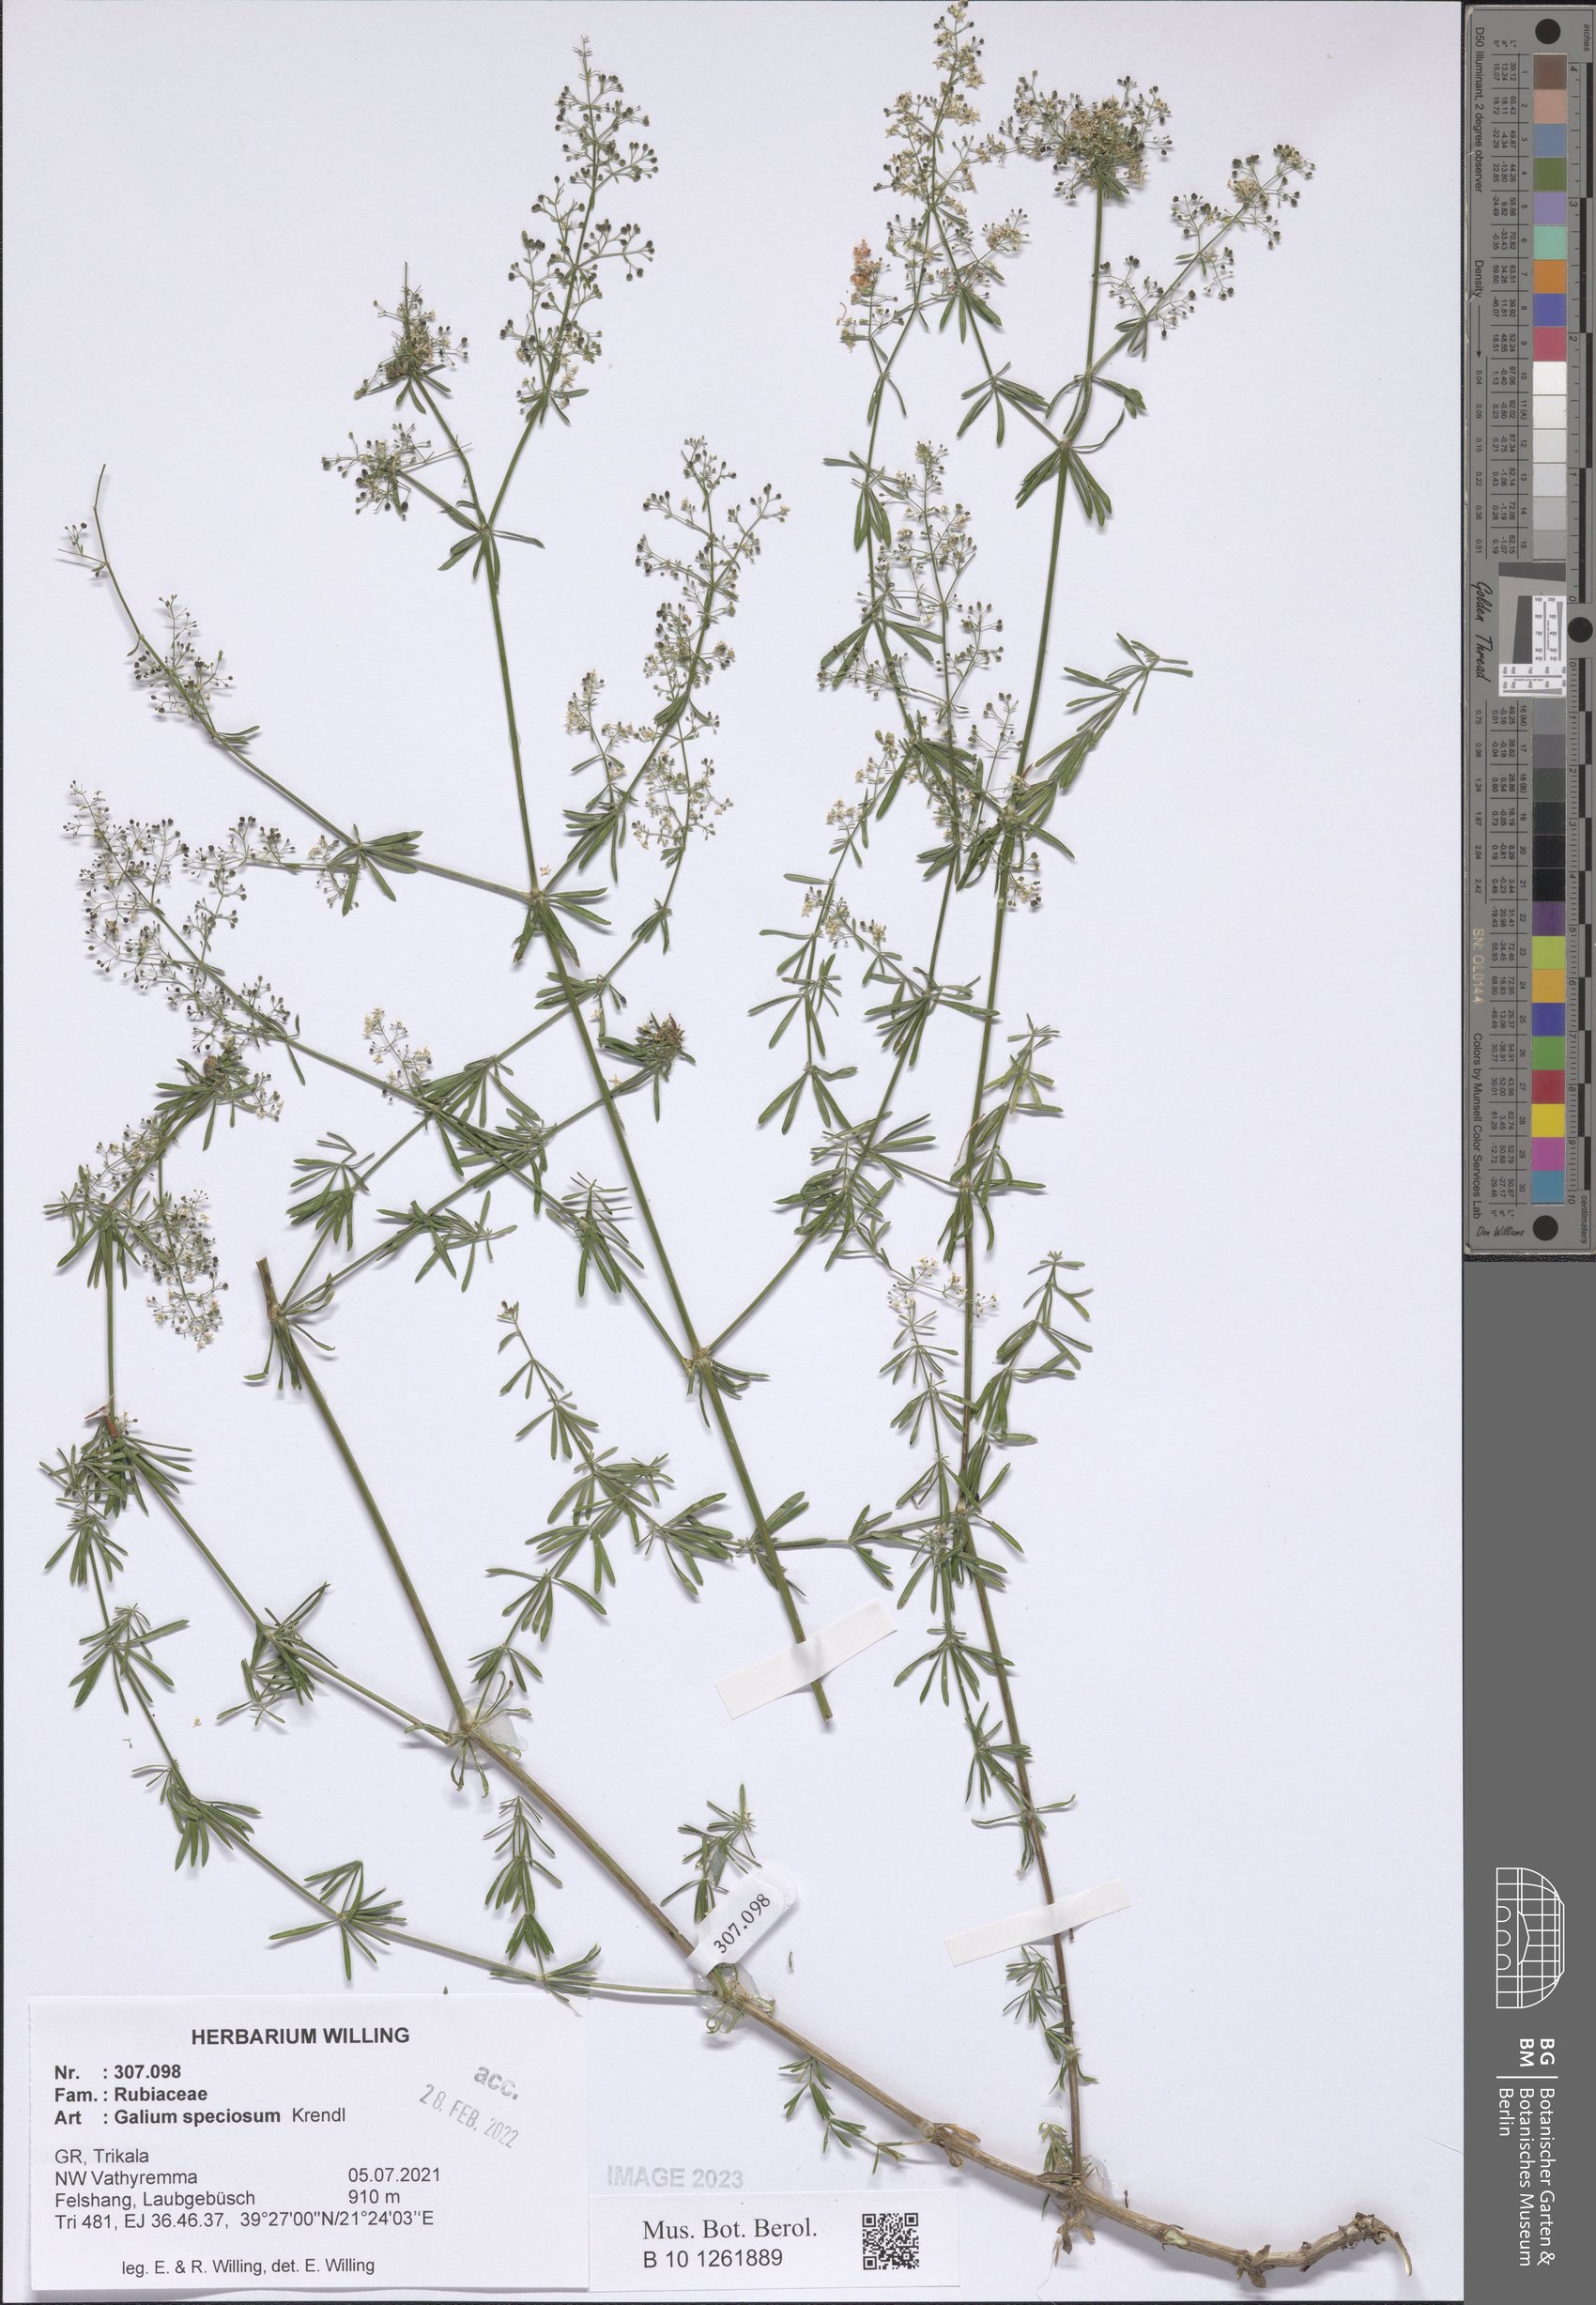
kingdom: Plantae
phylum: Tracheophyta
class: Magnoliopsida
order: Gentianales
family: Rubiaceae
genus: Galium
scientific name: Galium speciosum
